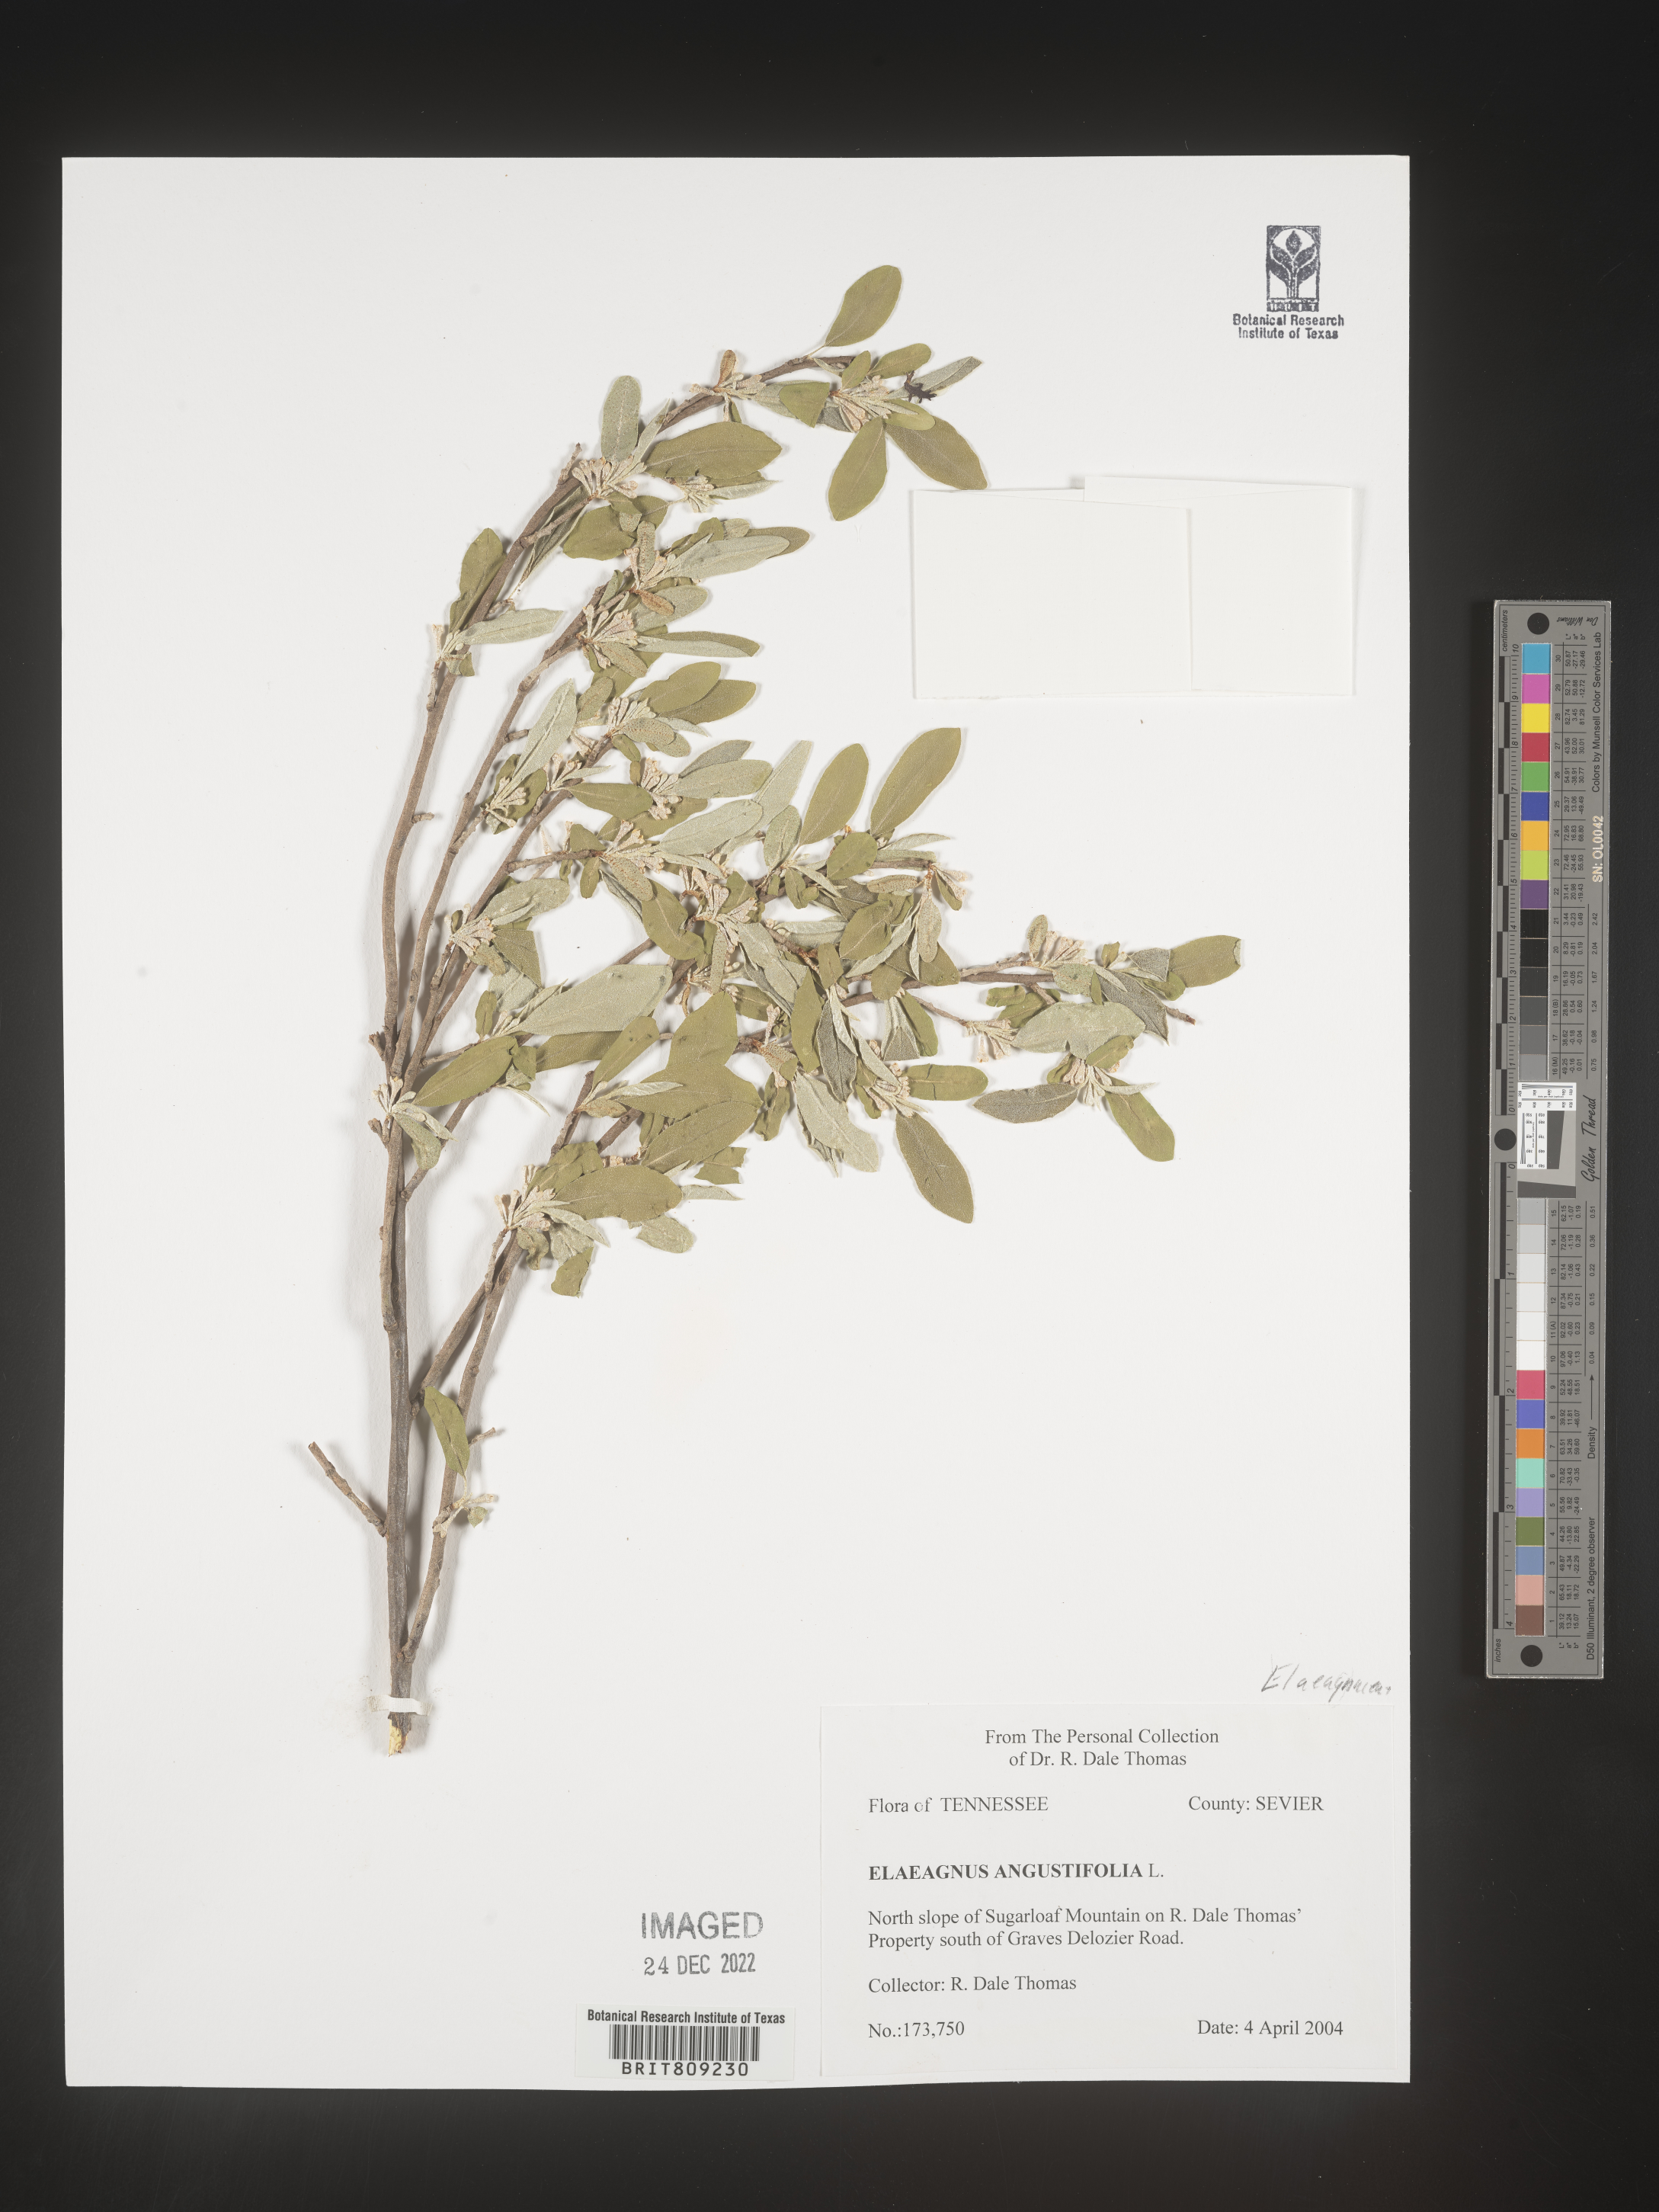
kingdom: Plantae
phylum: Tracheophyta
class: Magnoliopsida
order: Rosales
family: Elaeagnaceae
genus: Elaeagnus
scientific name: Elaeagnus angustifolia
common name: Russian olive
